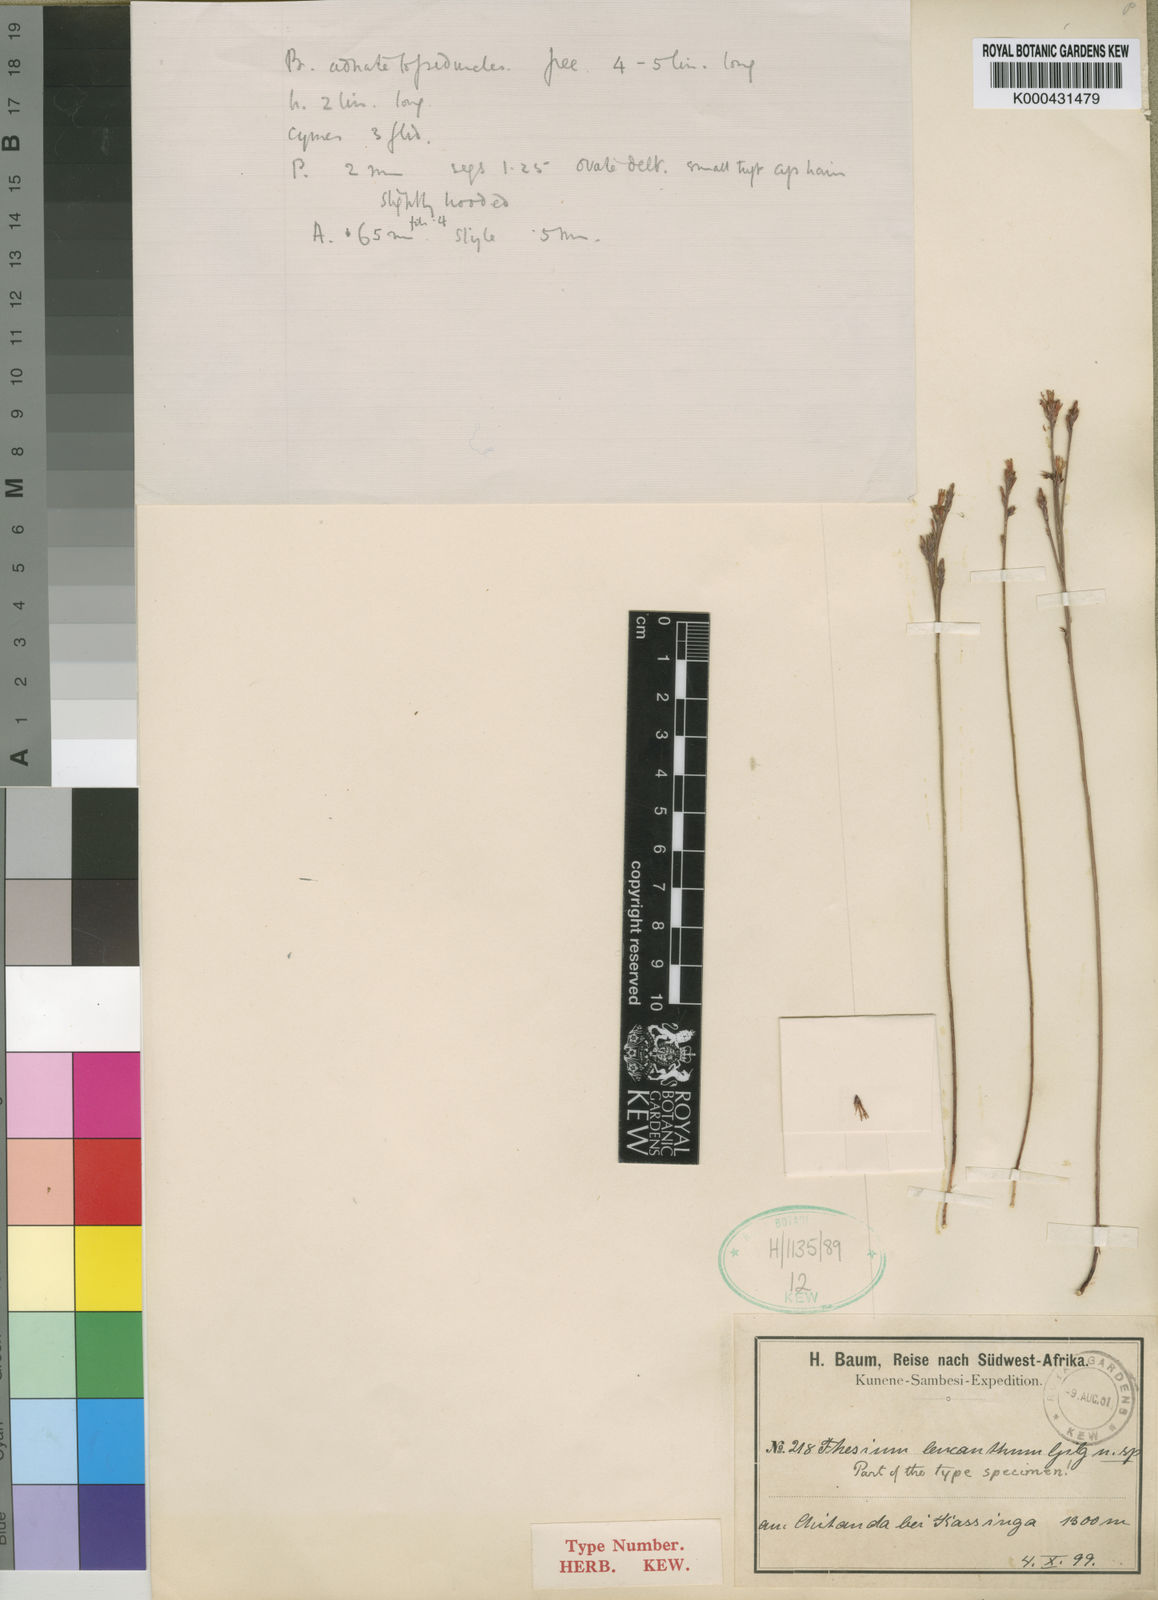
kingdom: Plantae
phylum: Tracheophyta
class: Magnoliopsida
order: Santalales
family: Thesiaceae
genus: Thesium
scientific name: Thesium leucanthum
